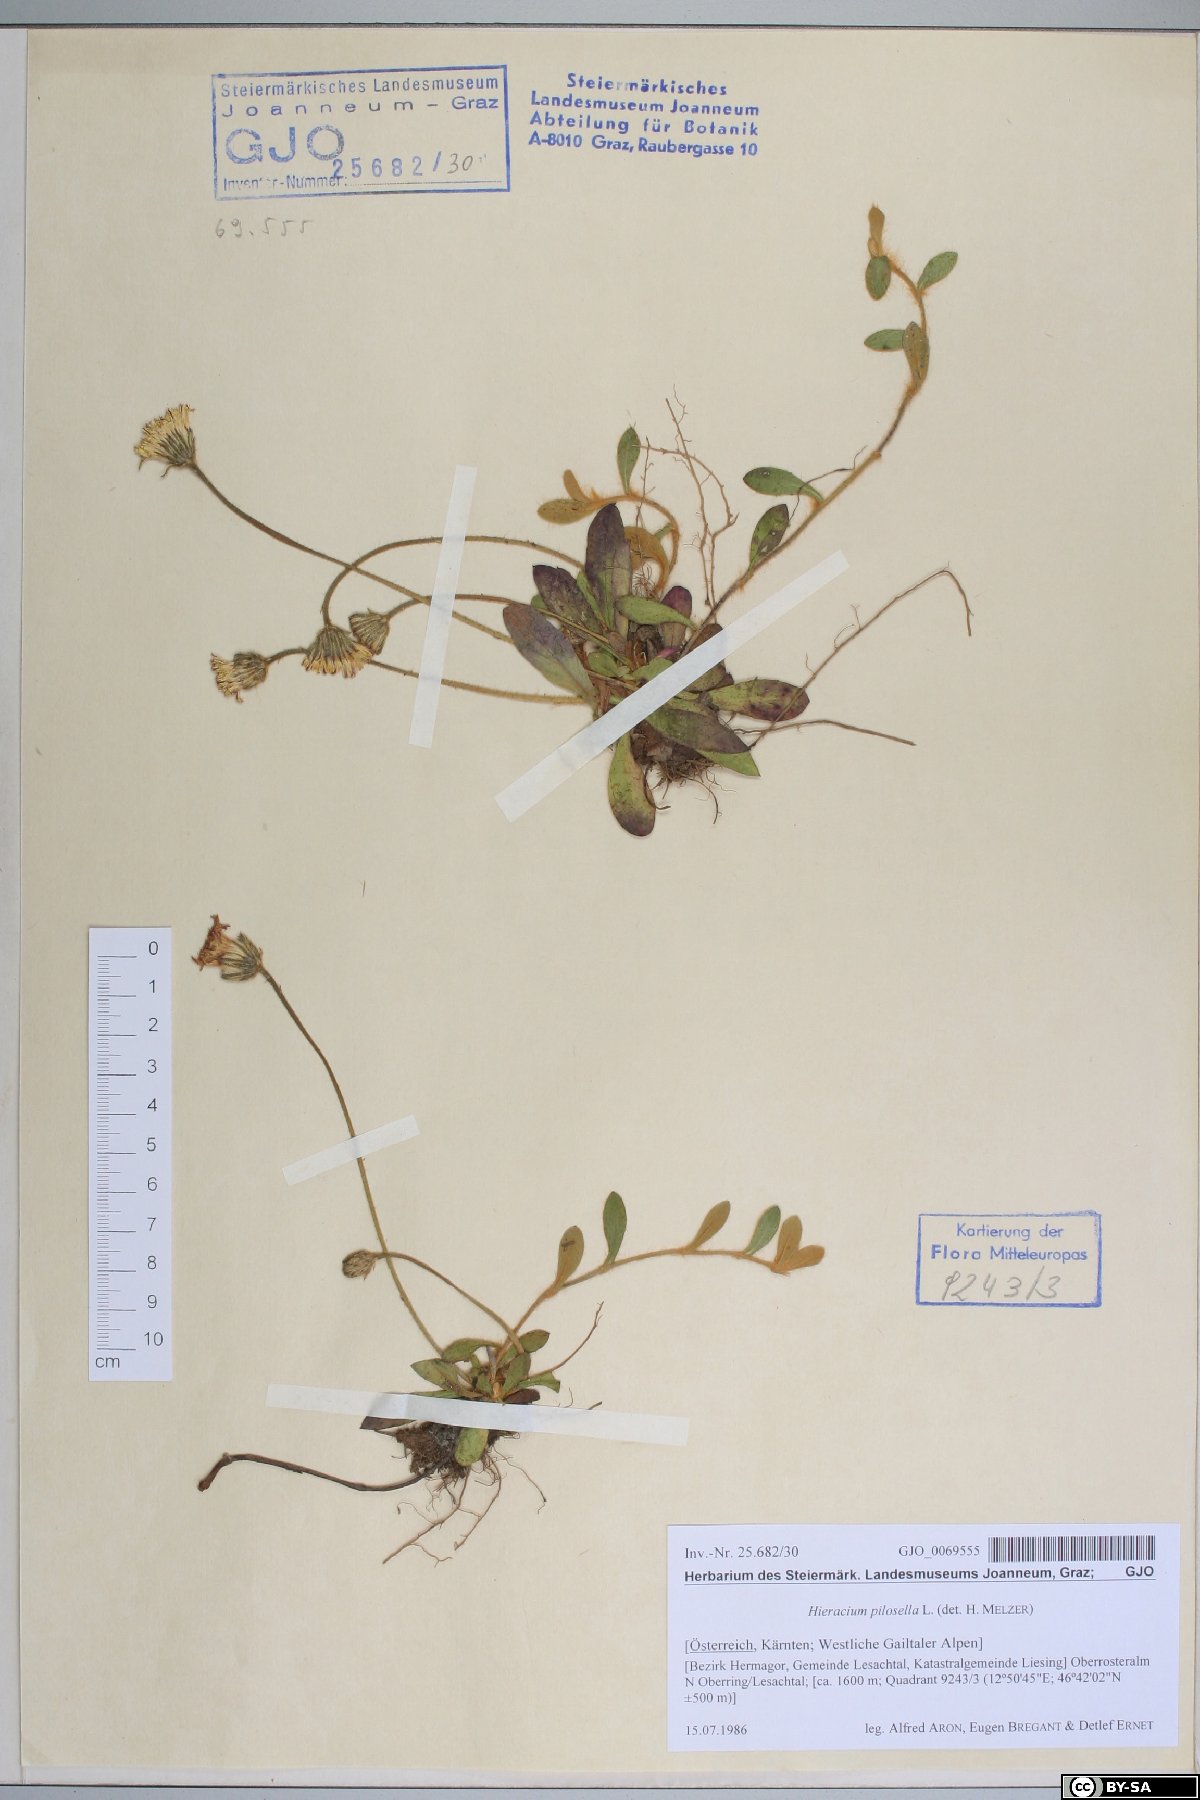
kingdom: Plantae
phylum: Tracheophyta
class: Magnoliopsida
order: Asterales
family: Asteraceae
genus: Pilosella
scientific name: Pilosella officinarum
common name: Mouse-ear hawkweed
